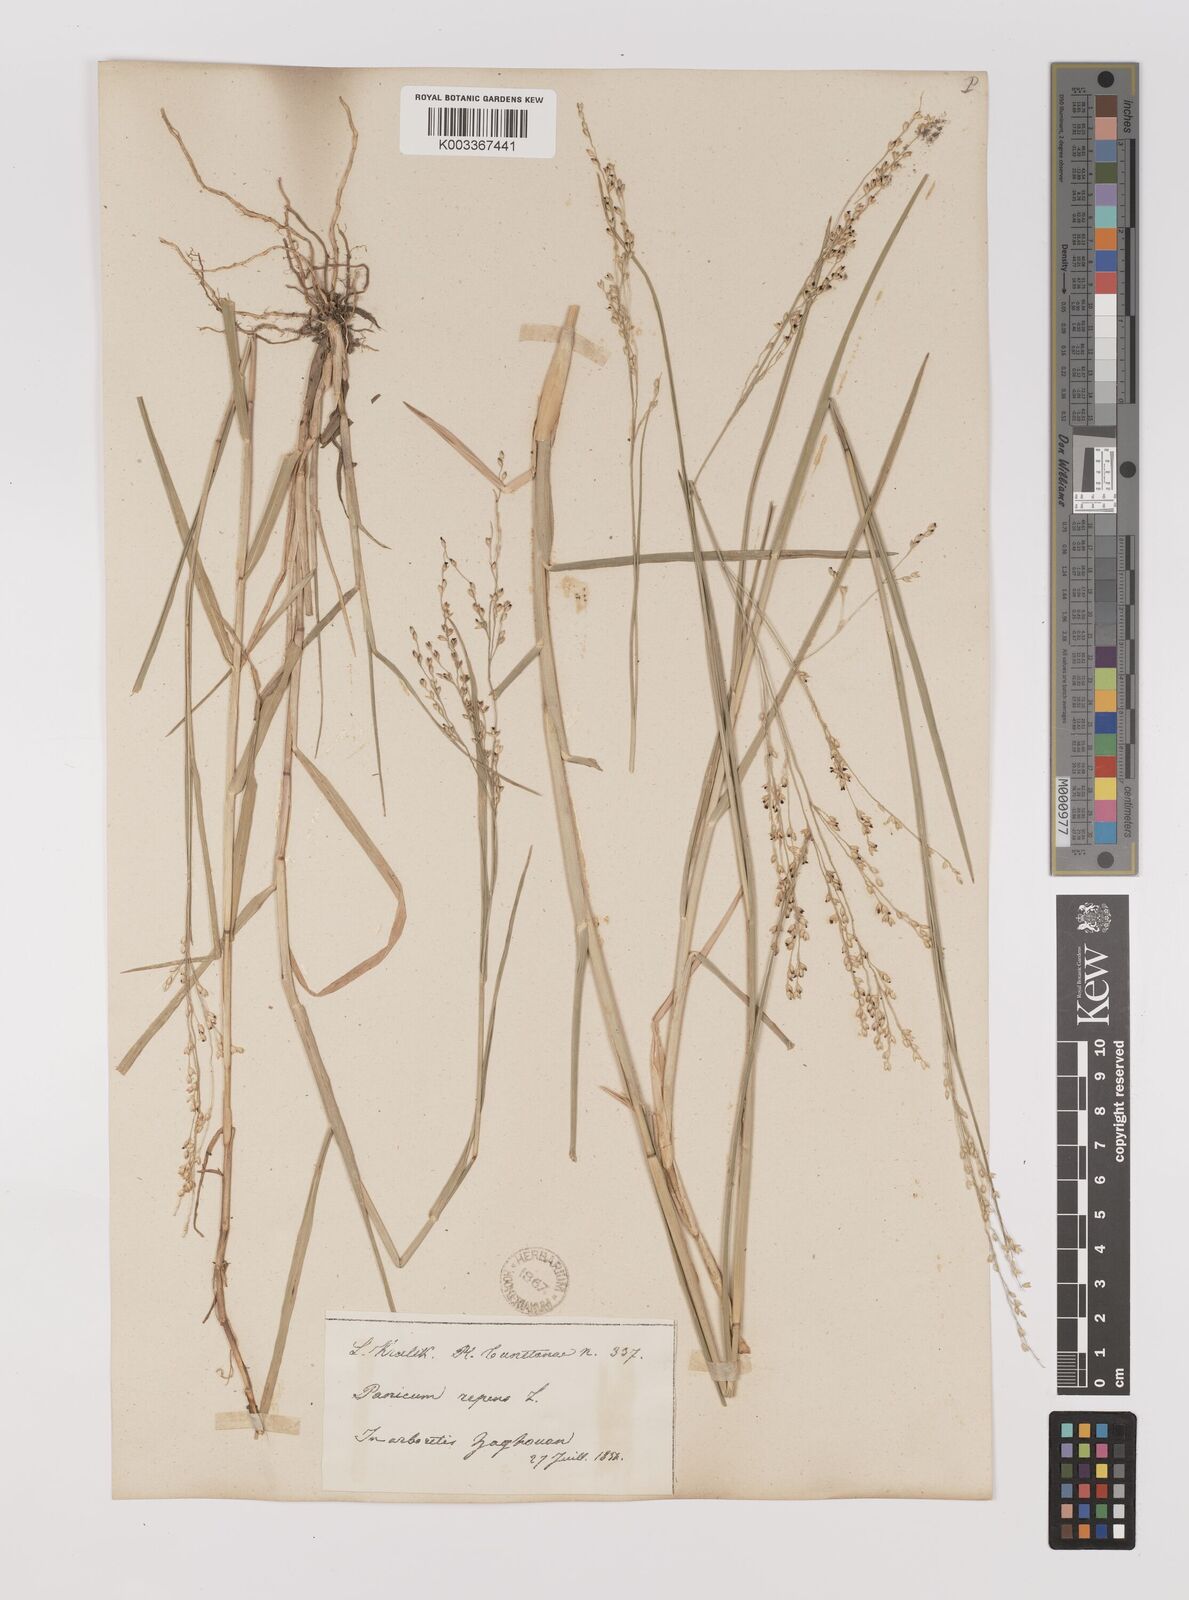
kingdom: Plantae
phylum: Tracheophyta
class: Liliopsida
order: Poales
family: Poaceae
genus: Panicum
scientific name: Panicum repens
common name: Torpedo grass
